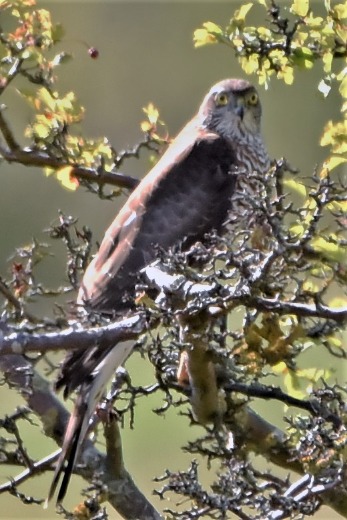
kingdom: Animalia
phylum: Chordata
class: Aves
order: Accipitriformes
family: Accipitridae
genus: Accipiter
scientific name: Accipiter nisus
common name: Spurvehøg
